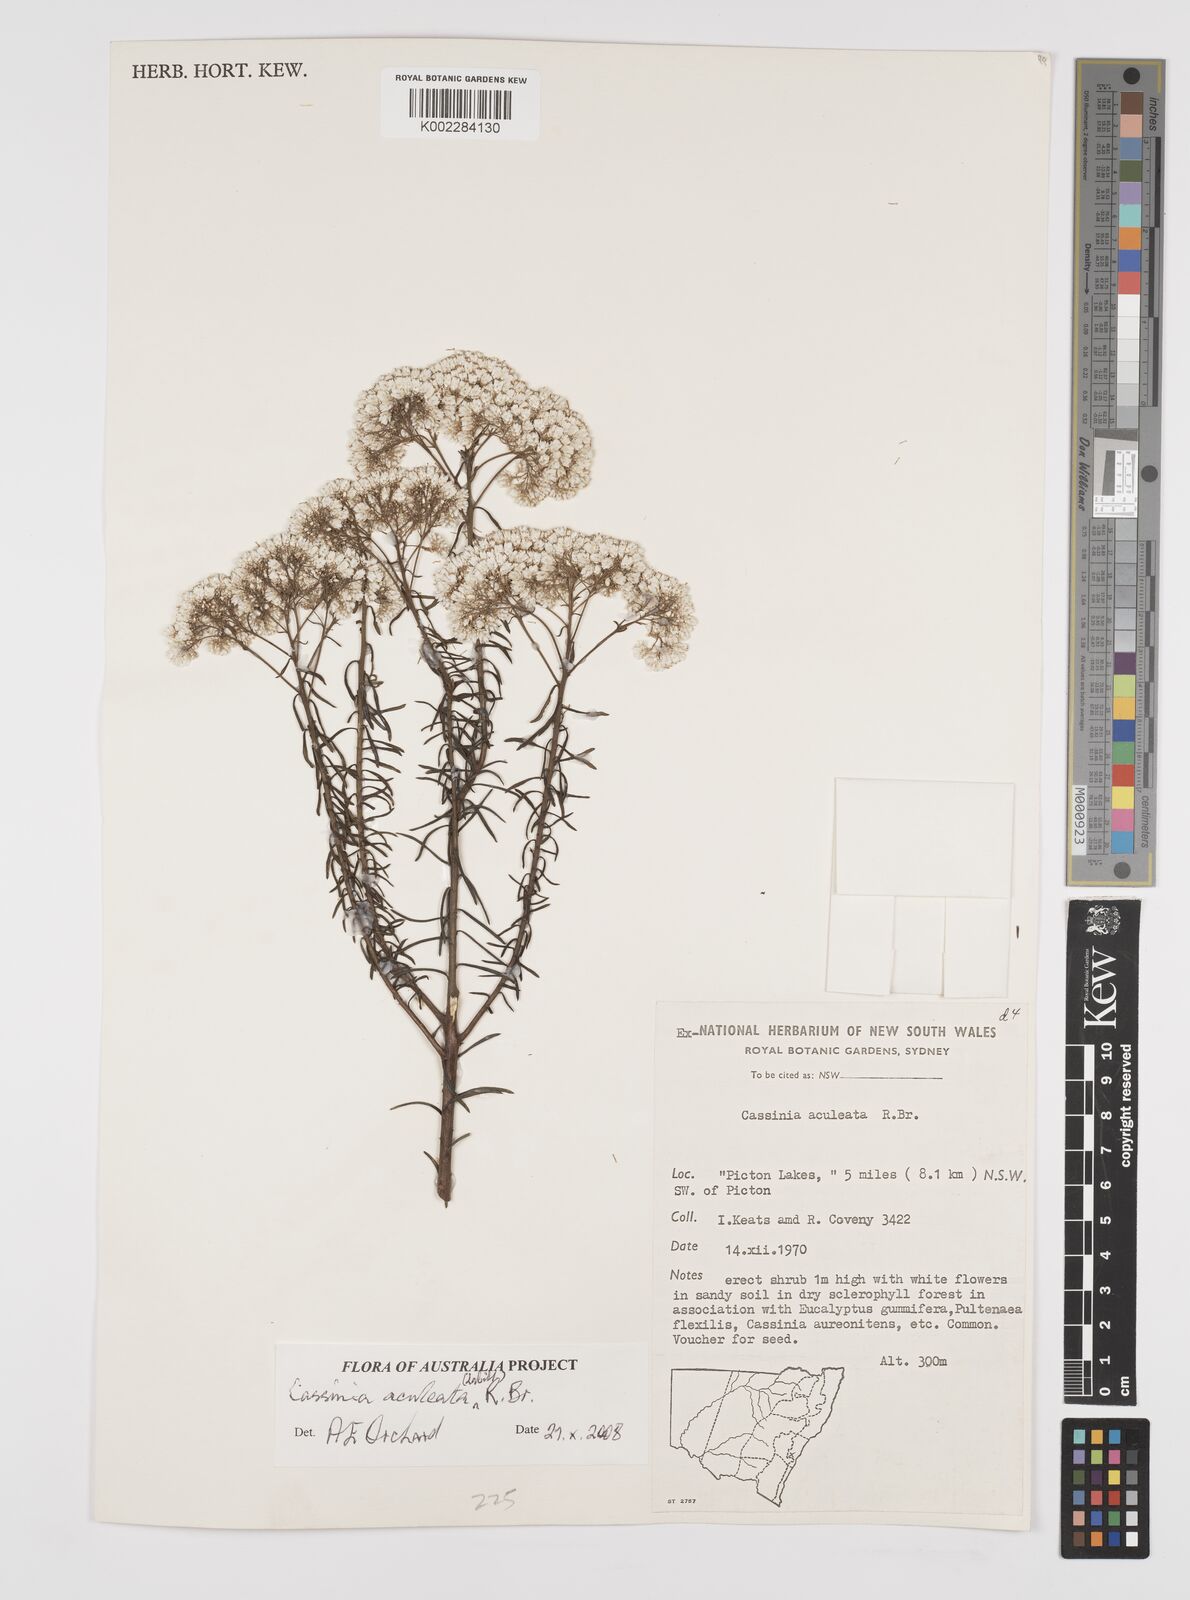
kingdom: Plantae
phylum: Tracheophyta
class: Magnoliopsida
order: Asterales
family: Asteraceae
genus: Cassinia
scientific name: Cassinia aculeata
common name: Australian tauhinu
